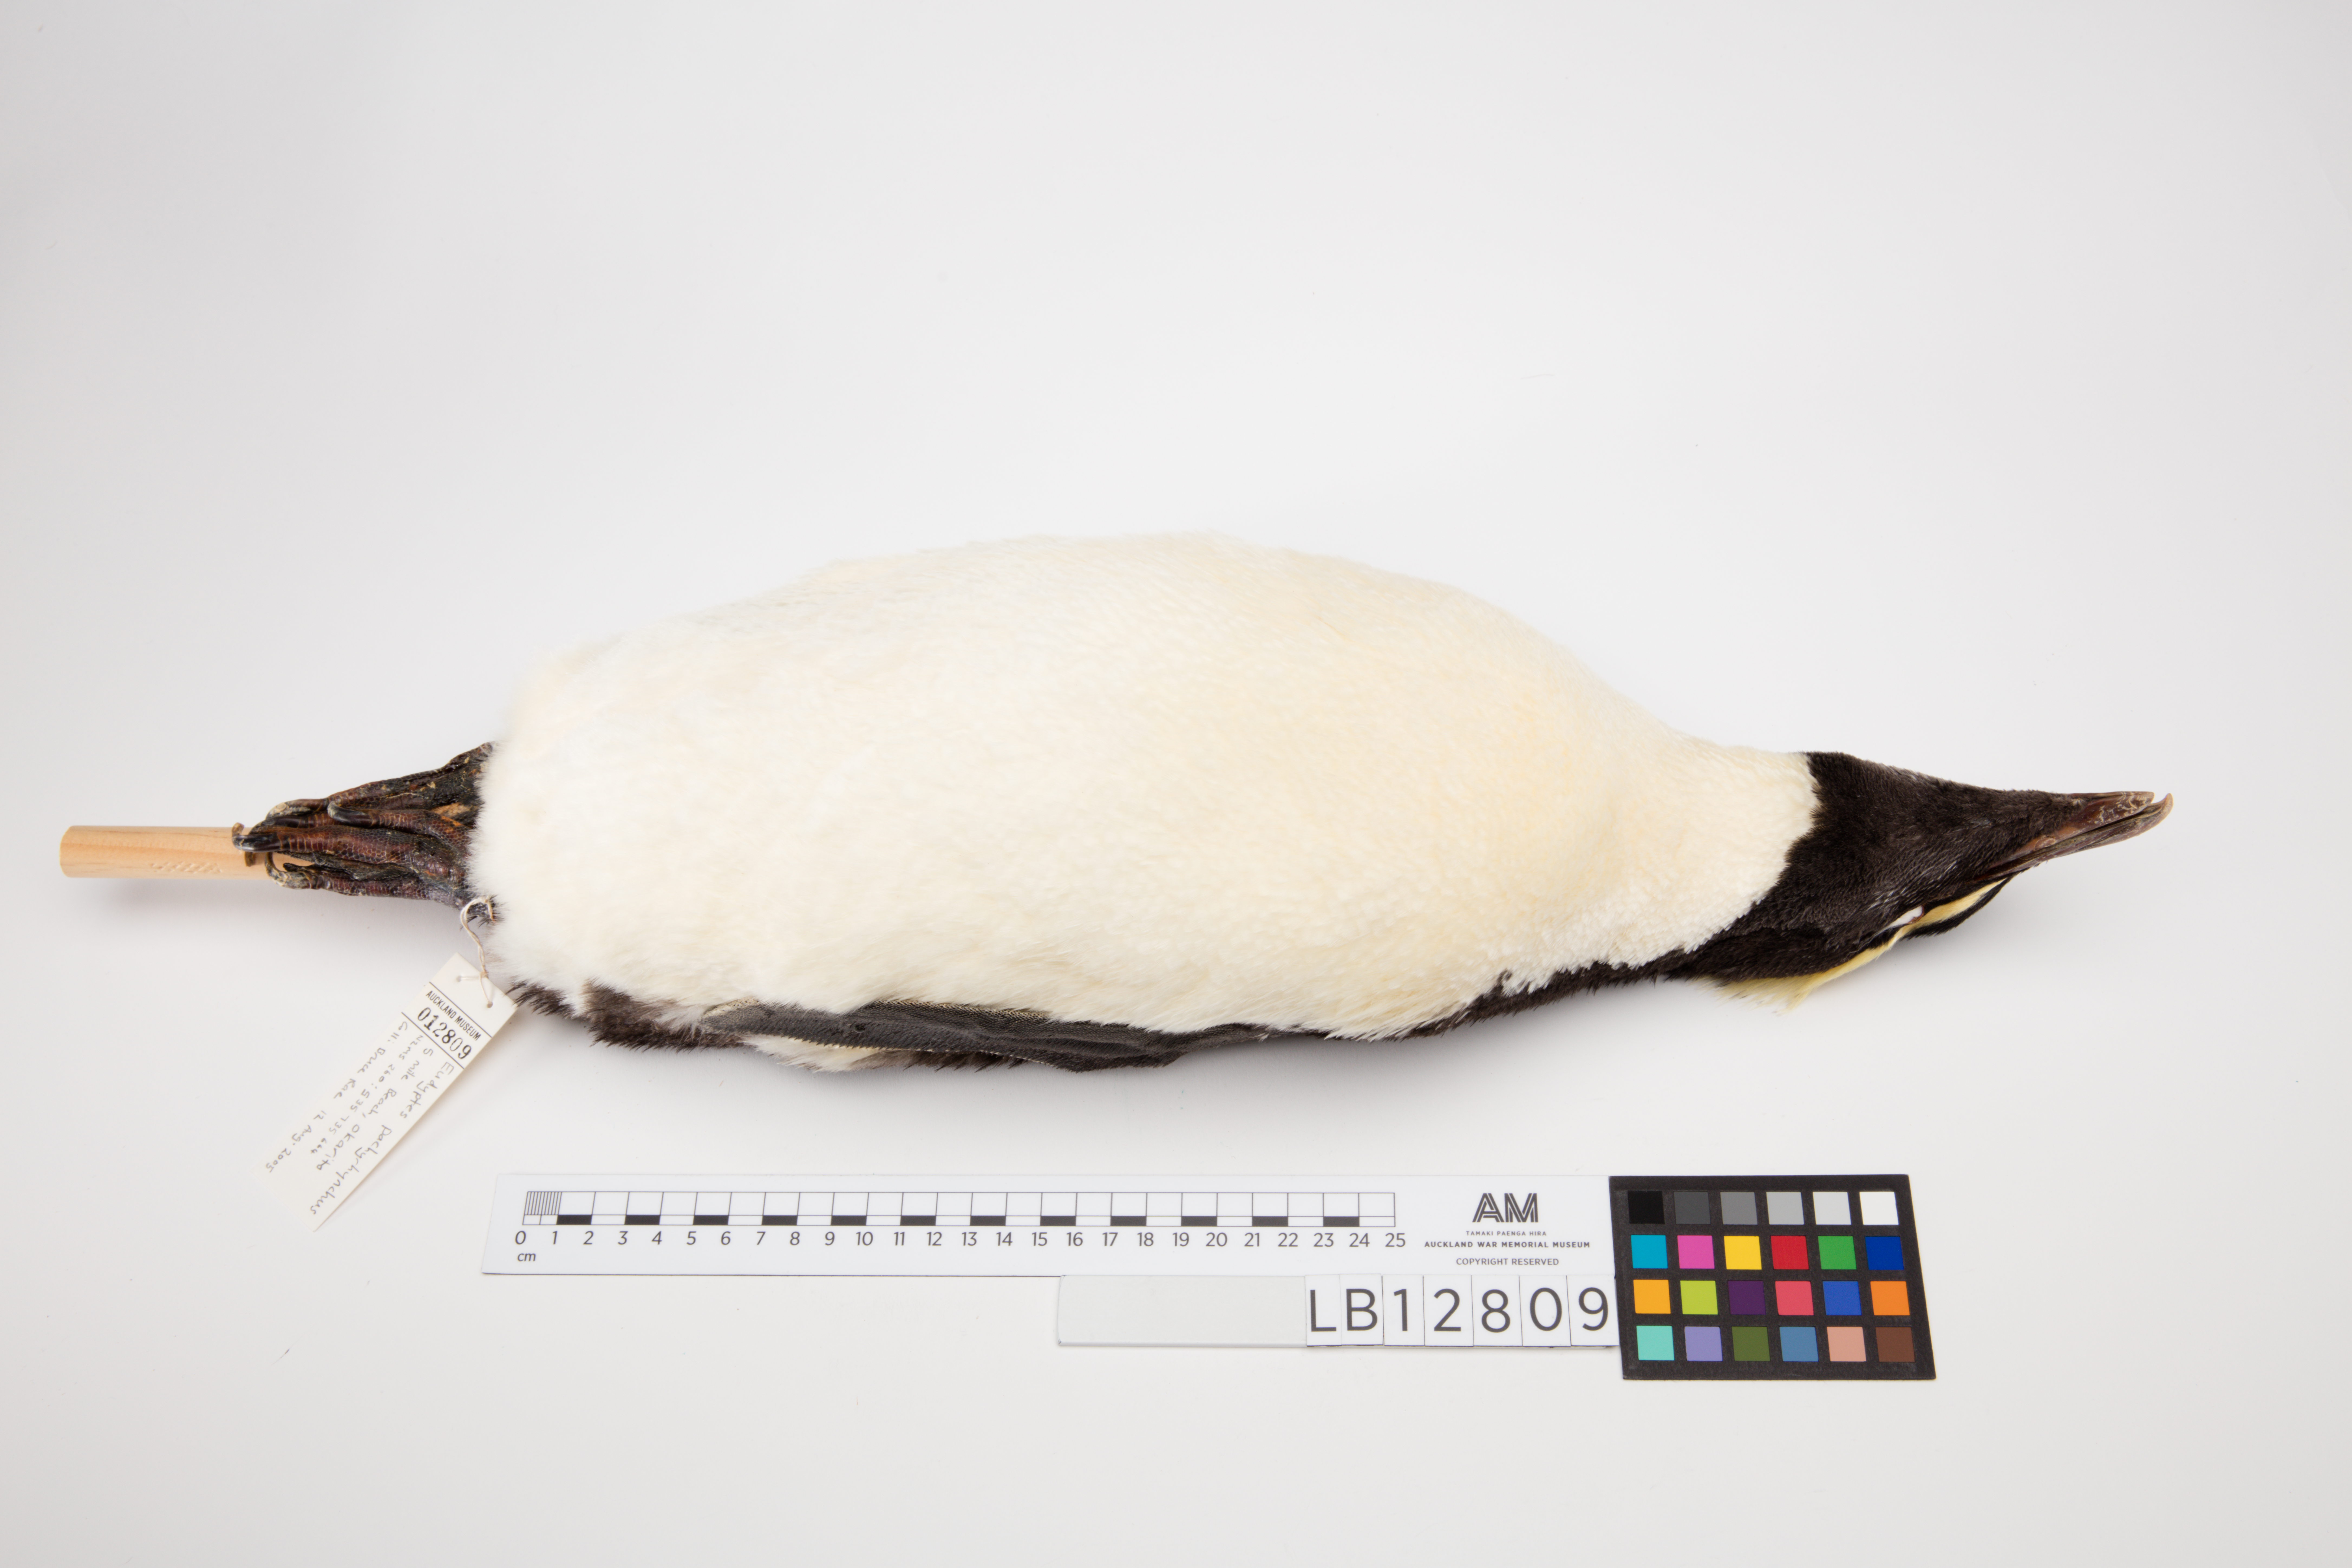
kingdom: Animalia
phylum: Chordata
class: Aves
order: Sphenisciformes
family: Spheniscidae
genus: Eudyptes
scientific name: Eudyptes pachyrhynchus
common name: Fiordland penguin
